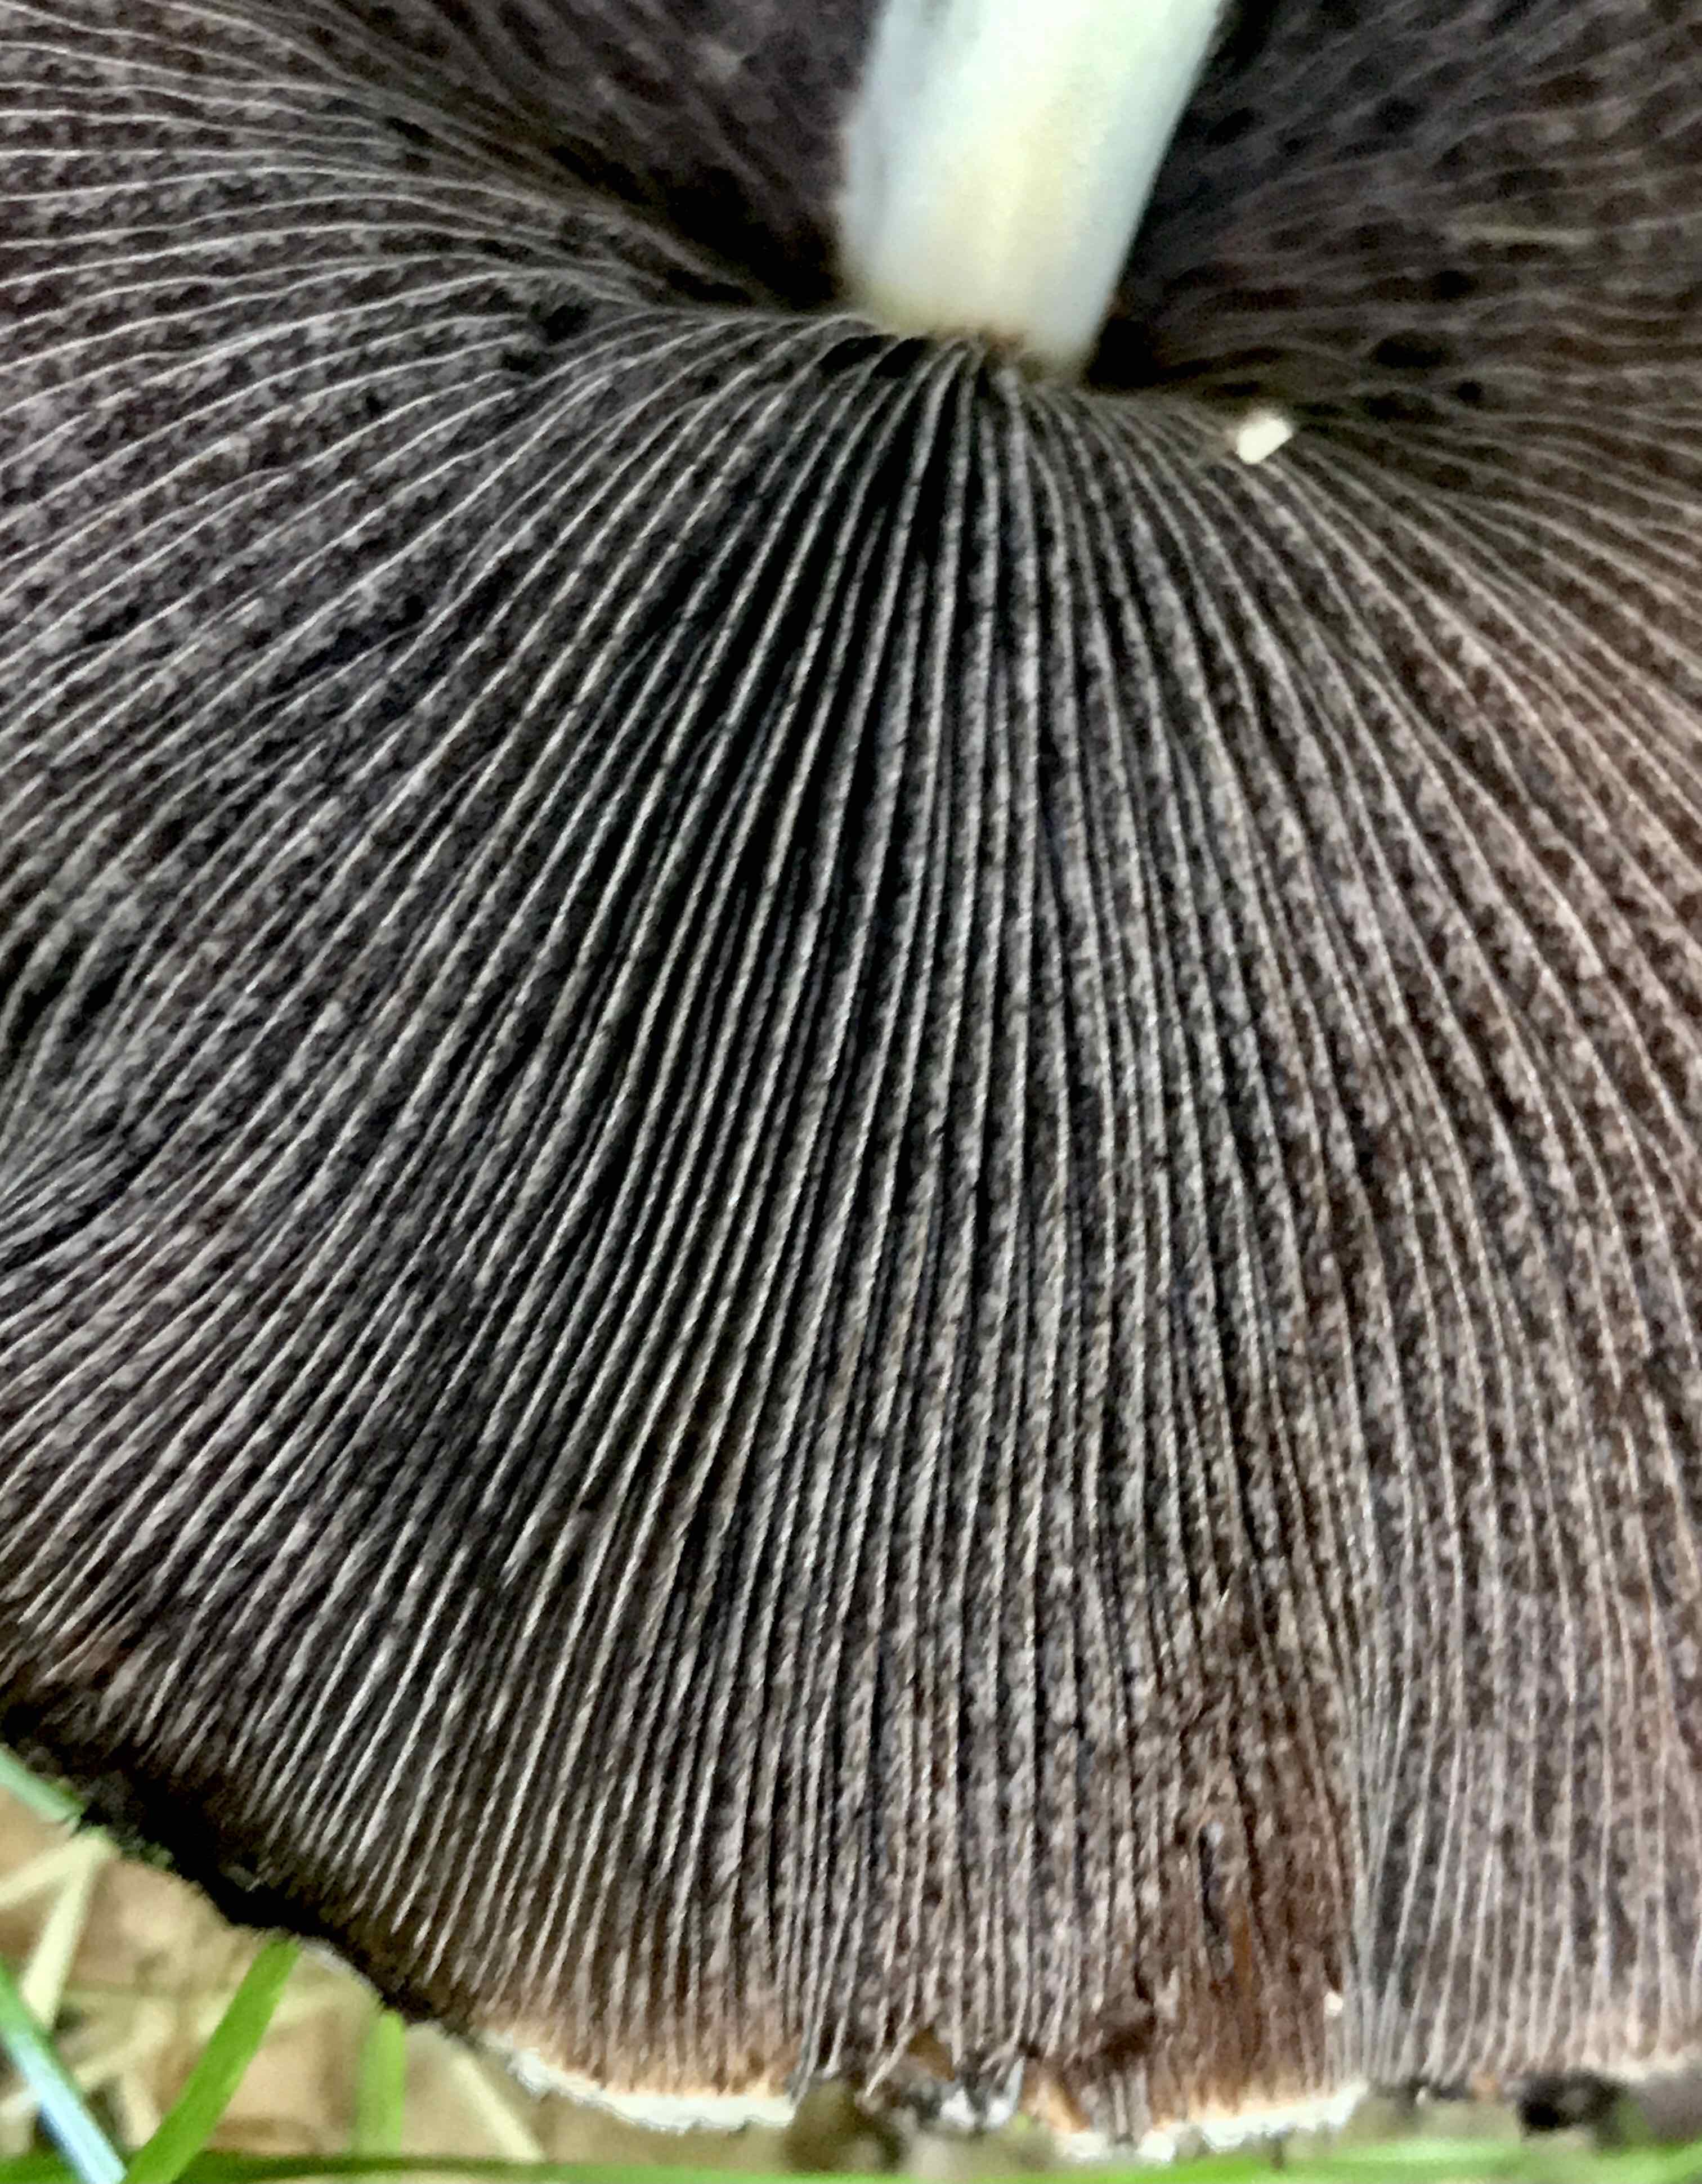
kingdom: Fungi
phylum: Basidiomycota
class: Agaricomycetes
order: Agaricales
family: Psathyrellaceae
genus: Lacrymaria
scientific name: Lacrymaria lacrymabunda
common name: grædende mørkhat
